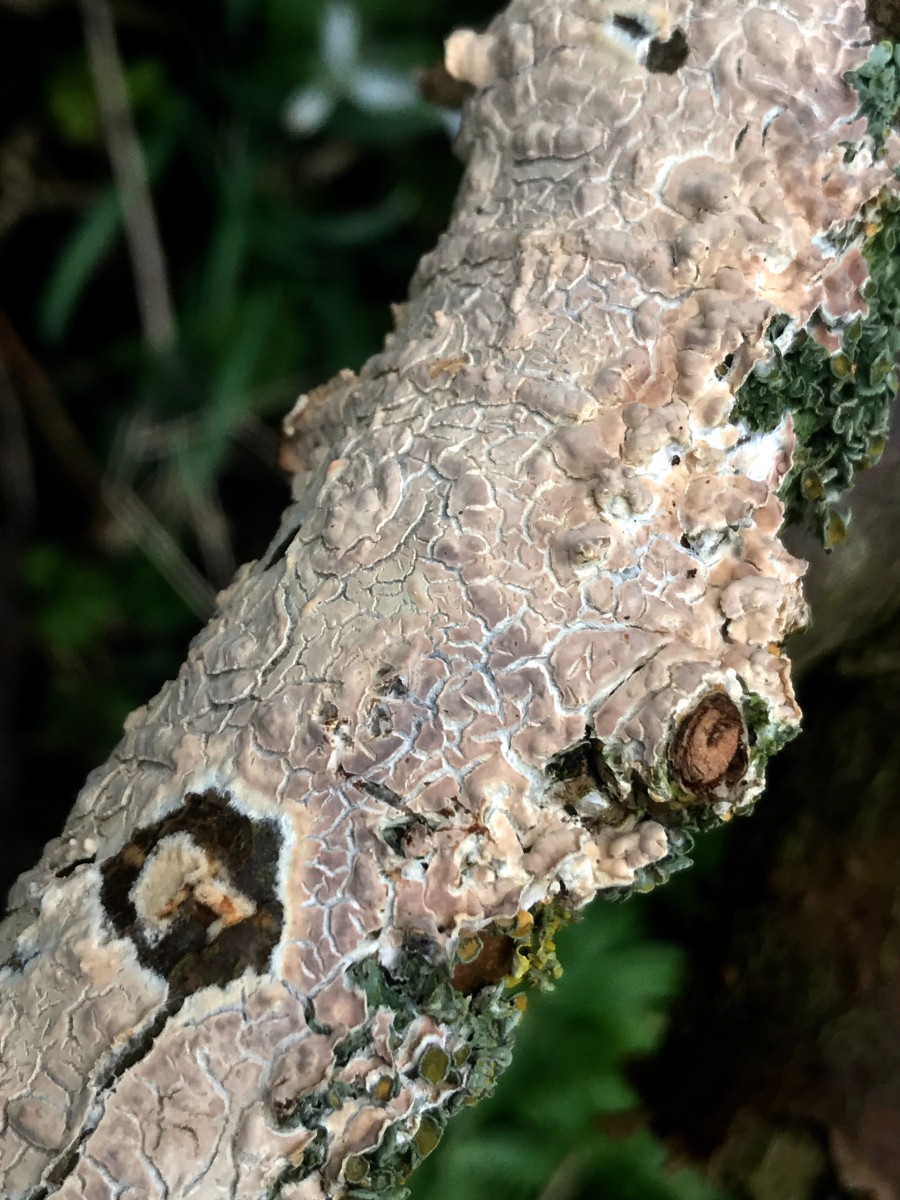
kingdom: Fungi
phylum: Basidiomycota
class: Agaricomycetes
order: Agaricales
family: Physalacriaceae
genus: Cylindrobasidium
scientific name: Cylindrobasidium evolvens
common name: sprækkehinde
